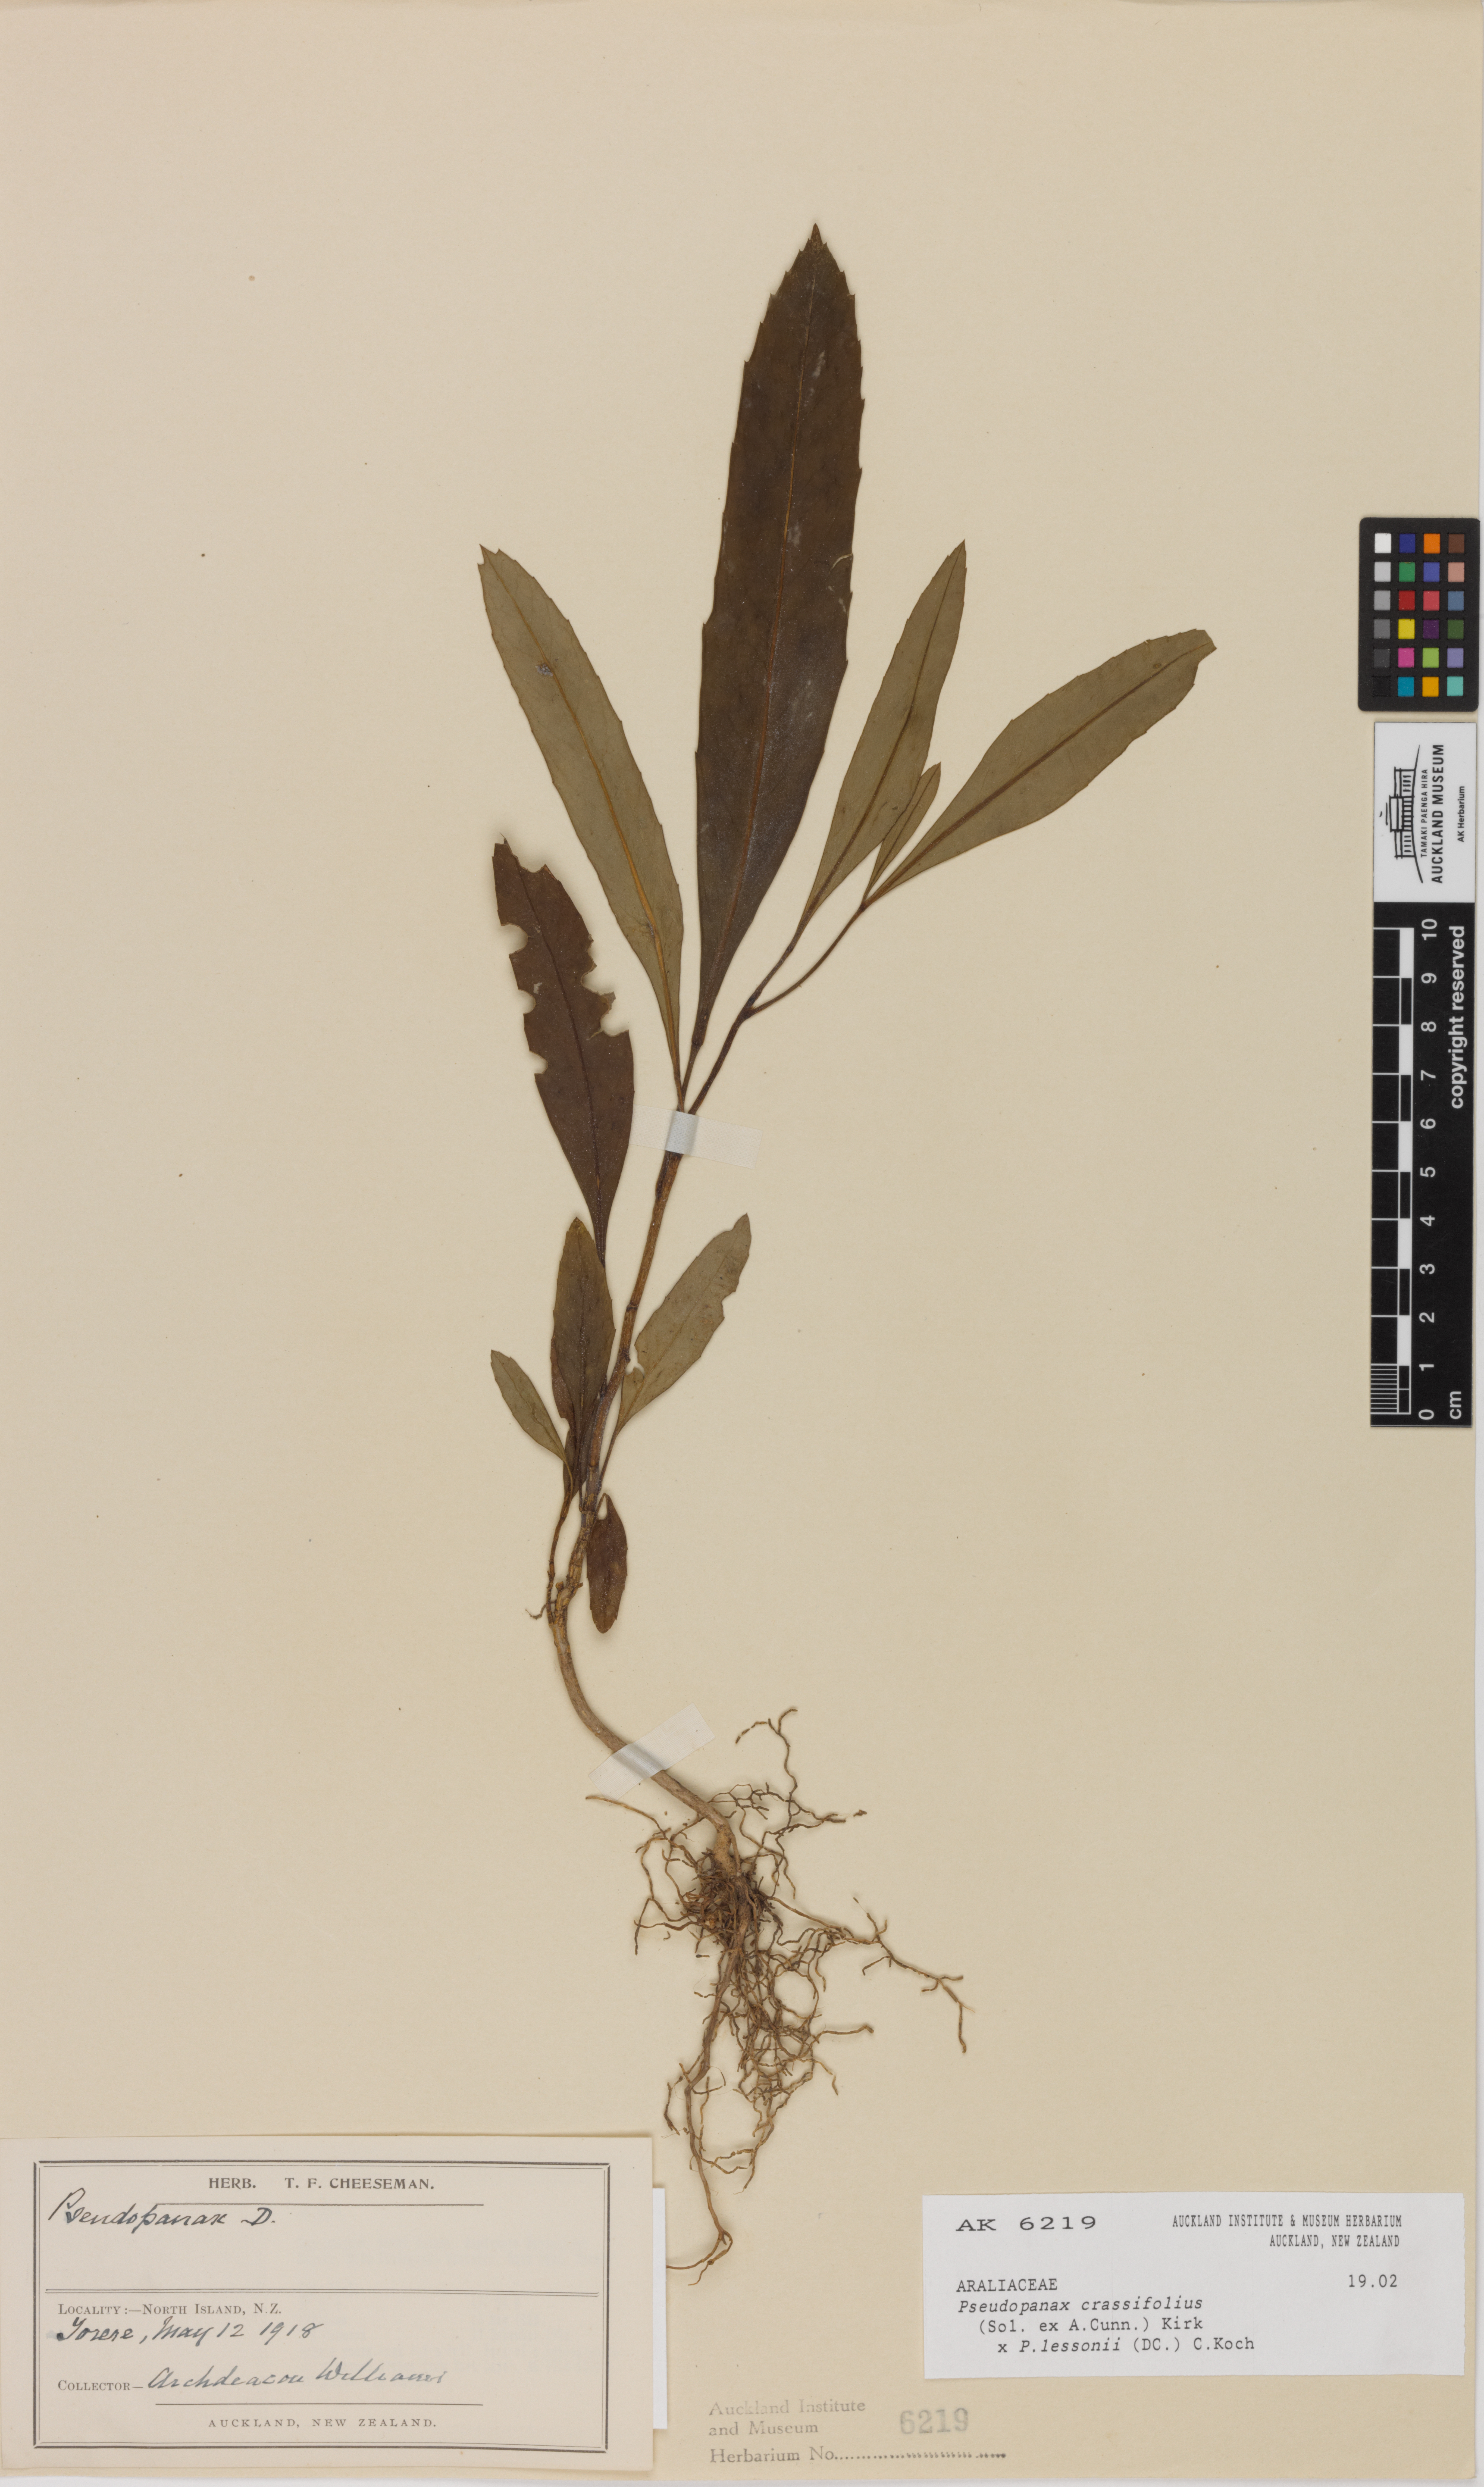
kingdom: Plantae
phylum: Tracheophyta
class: Magnoliopsida
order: Apiales
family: Araliaceae
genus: Pseudopanax
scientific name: Pseudopanax
